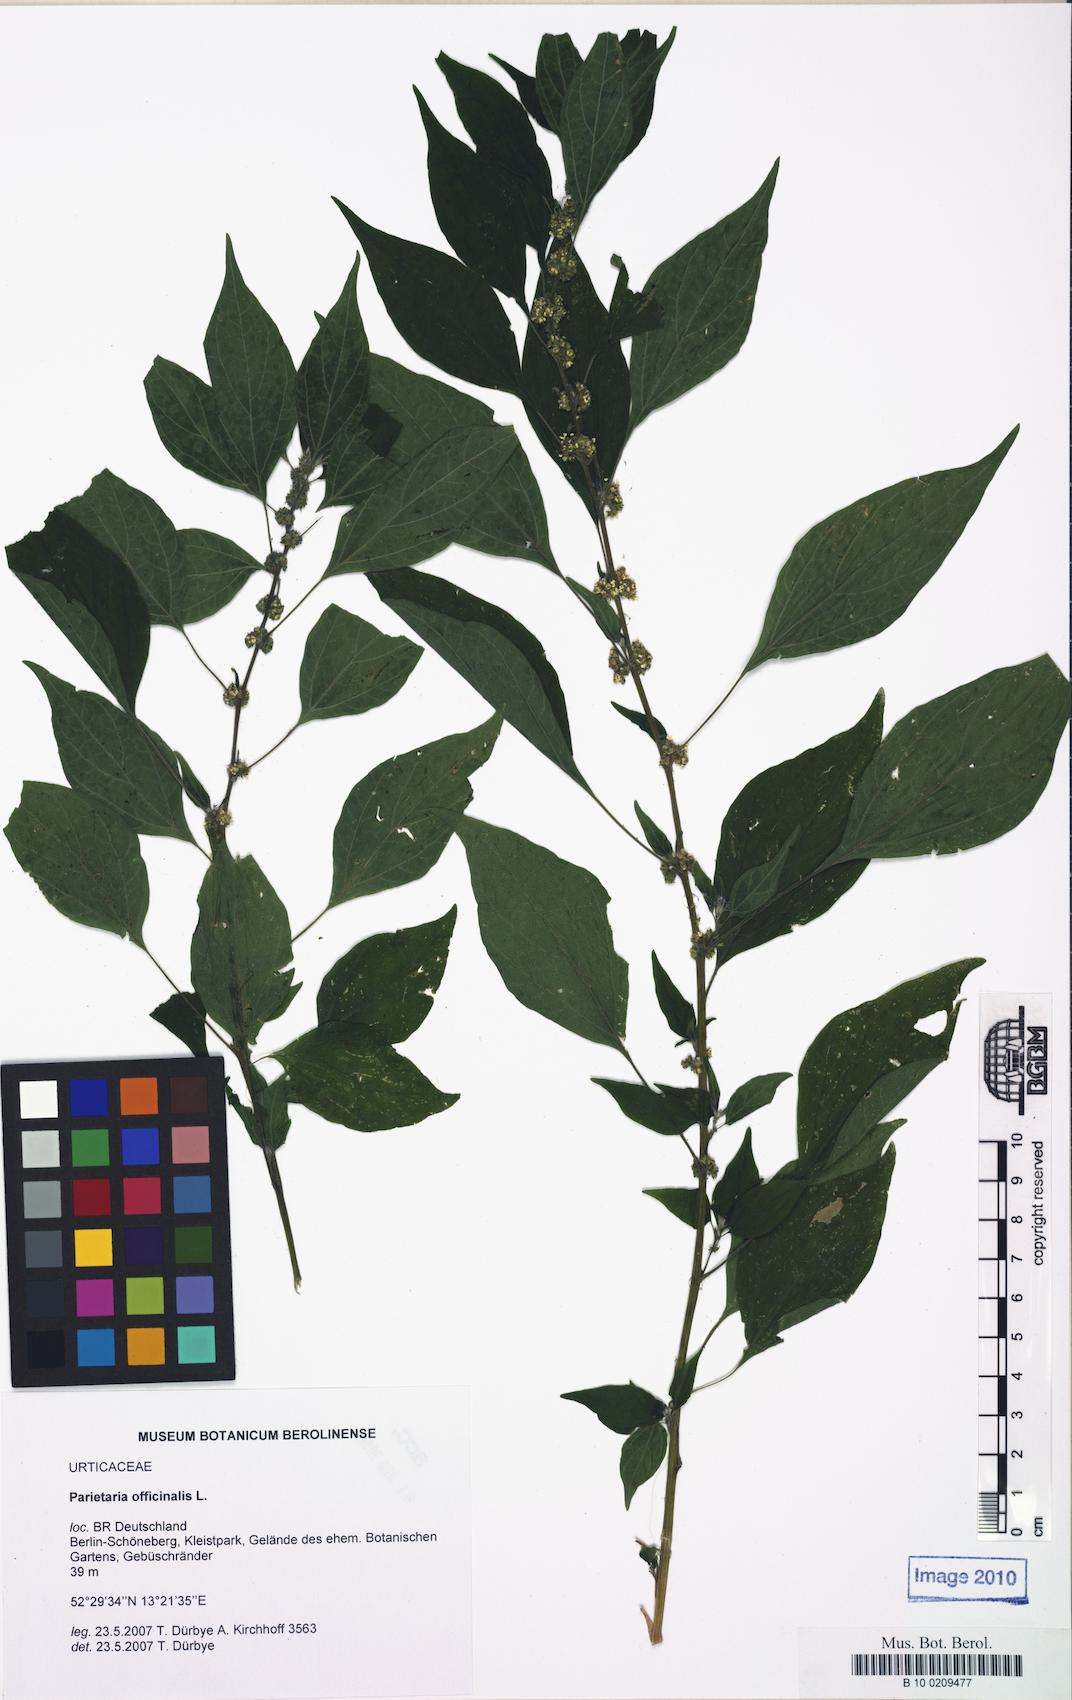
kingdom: Plantae
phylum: Tracheophyta
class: Magnoliopsida
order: Rosales
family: Urticaceae
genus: Parietaria
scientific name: Parietaria officinalis
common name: Eastern pellitory-of-the-wall
